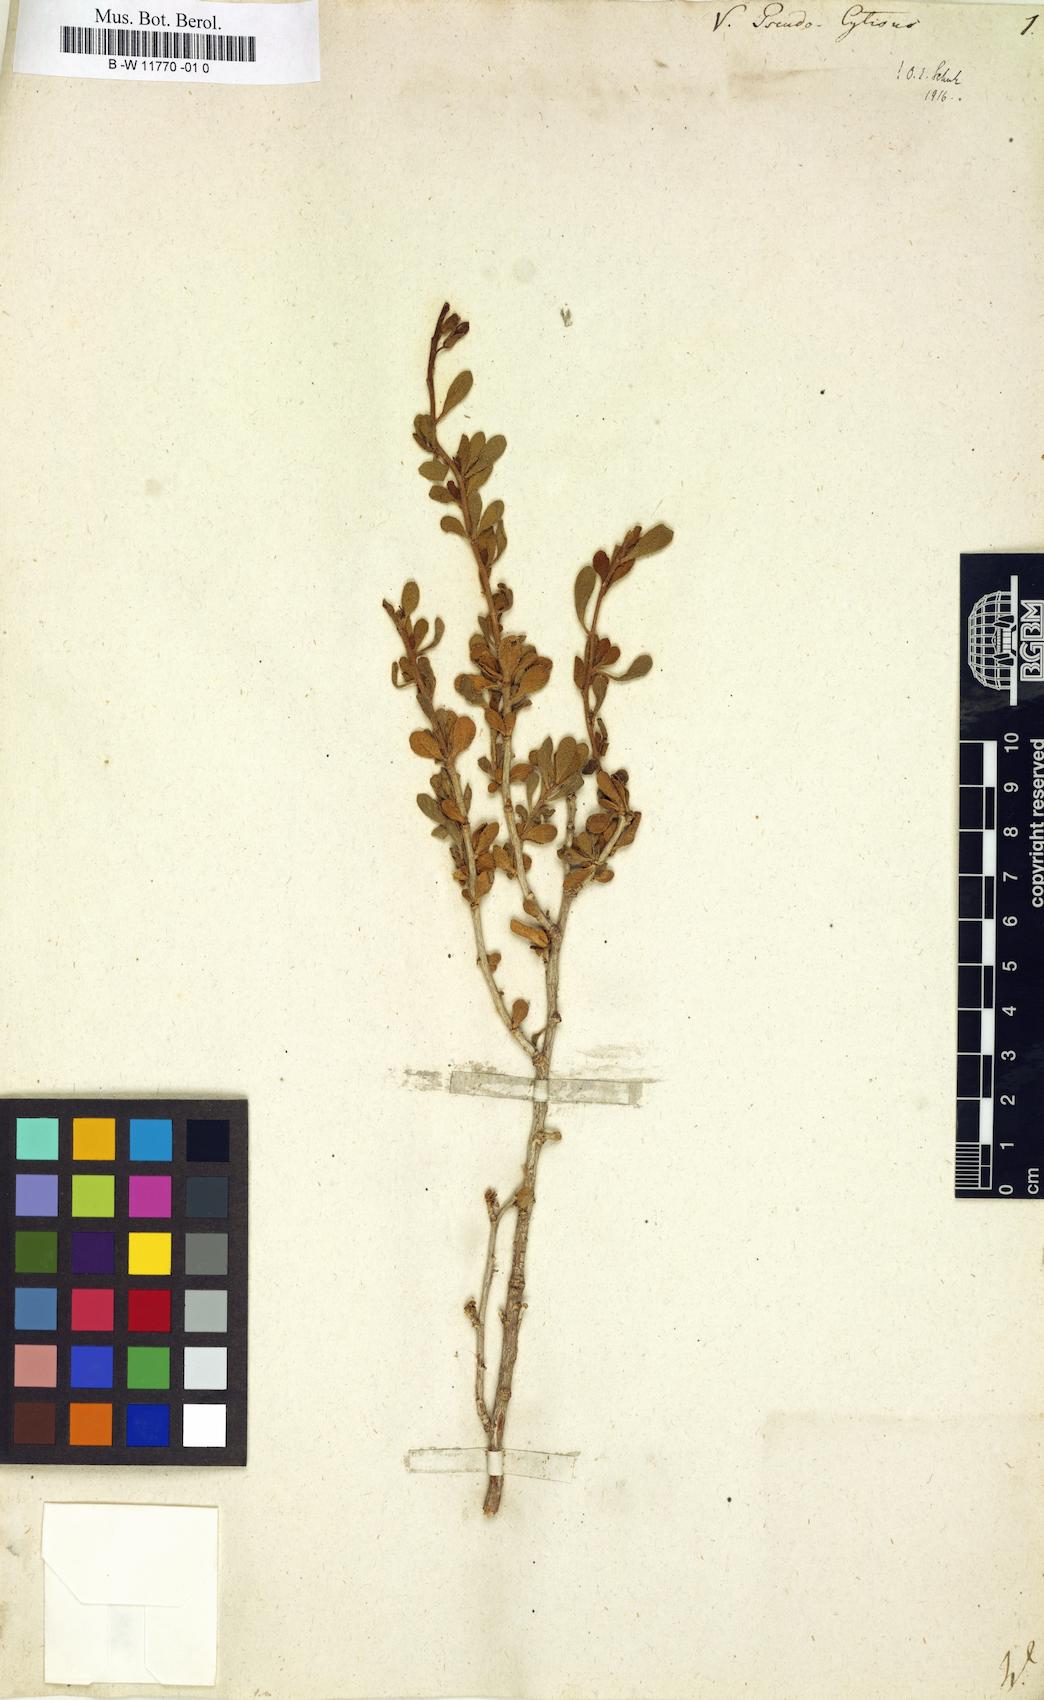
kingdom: Plantae
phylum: Tracheophyta
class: Magnoliopsida
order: Brassicales
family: Brassicaceae
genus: Vella
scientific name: Vella pseudocytisus
